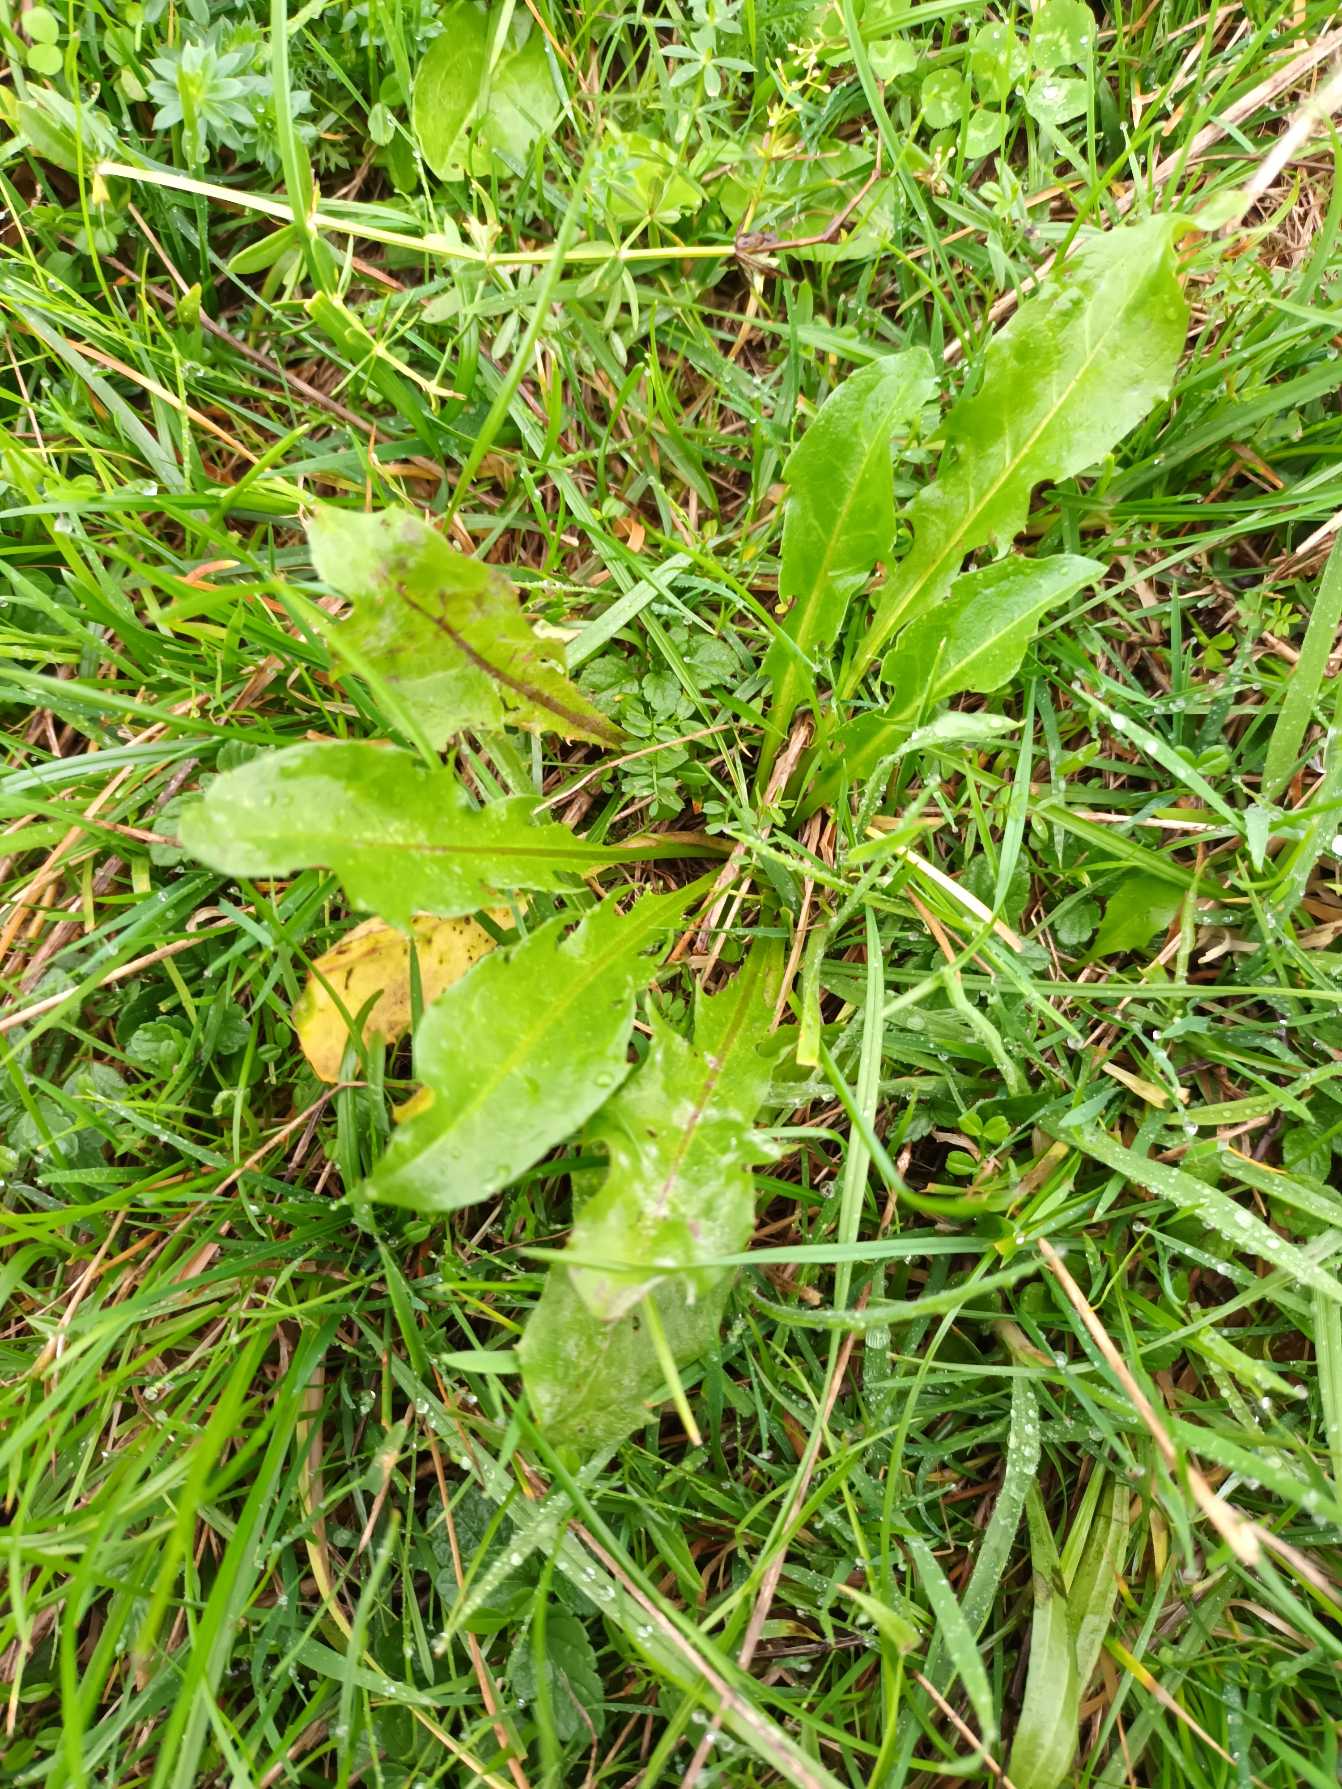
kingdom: Plantae
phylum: Tracheophyta
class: Magnoliopsida
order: Asterales
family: Asteraceae
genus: Taraxacum
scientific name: Taraxacum
